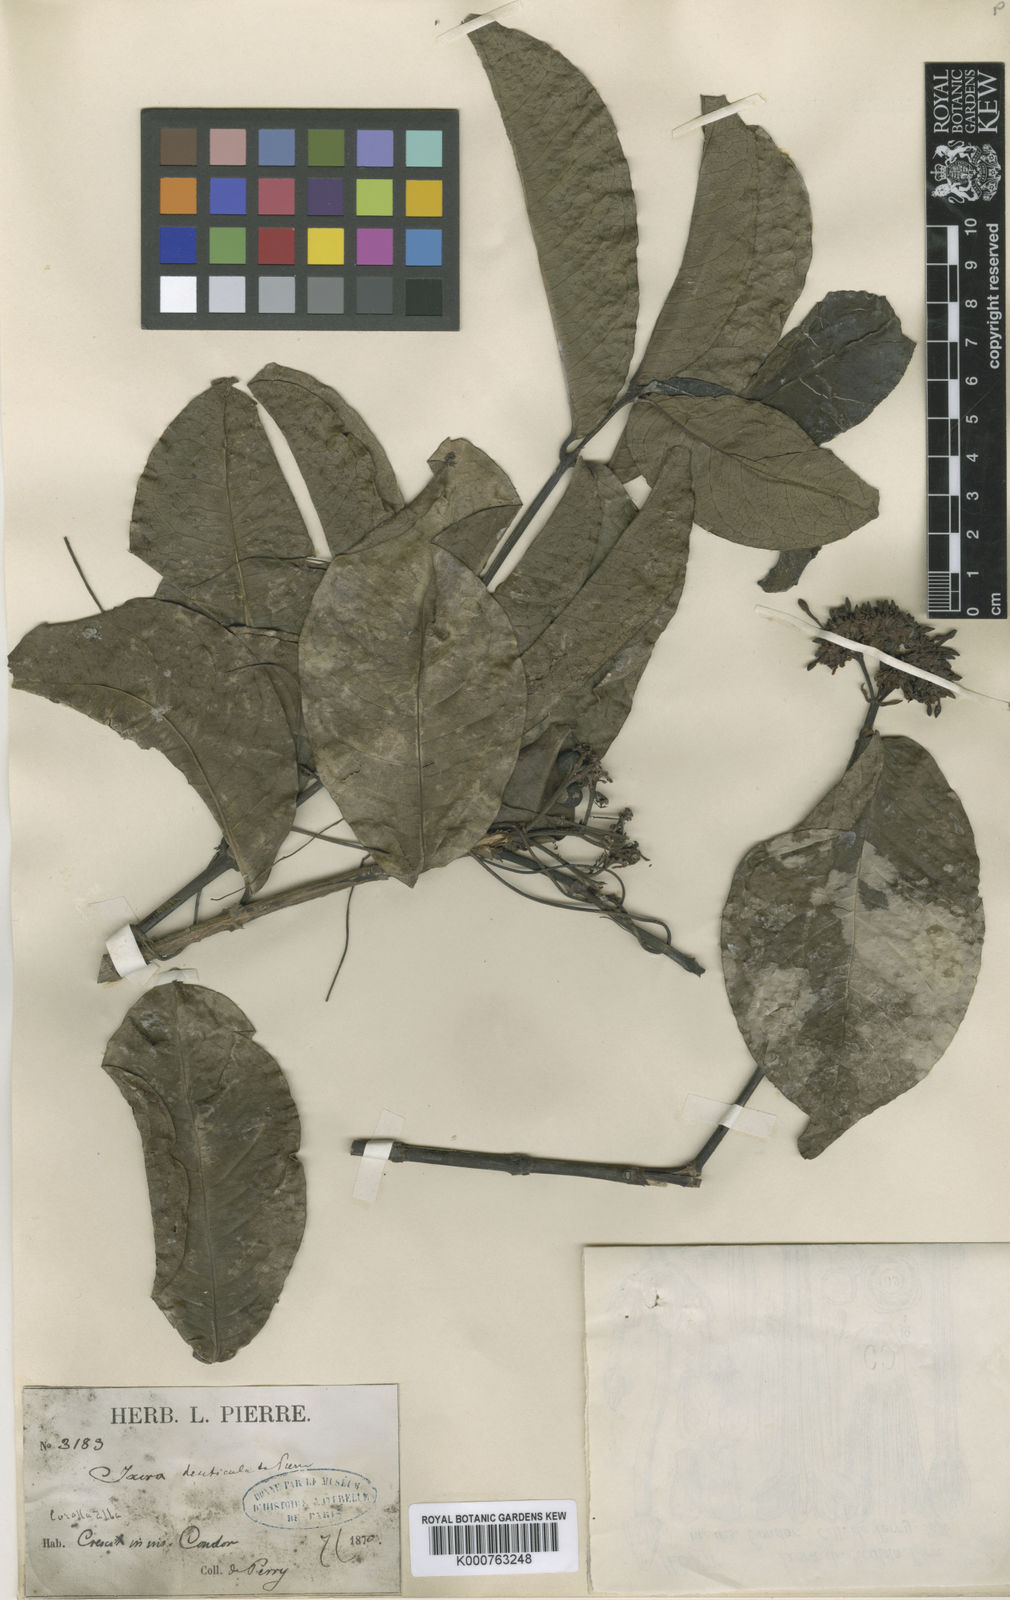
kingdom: Plantae
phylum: Tracheophyta
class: Magnoliopsida
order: Gentianales
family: Rubiaceae
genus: Ixora
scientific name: Ixora finlaysoniana
